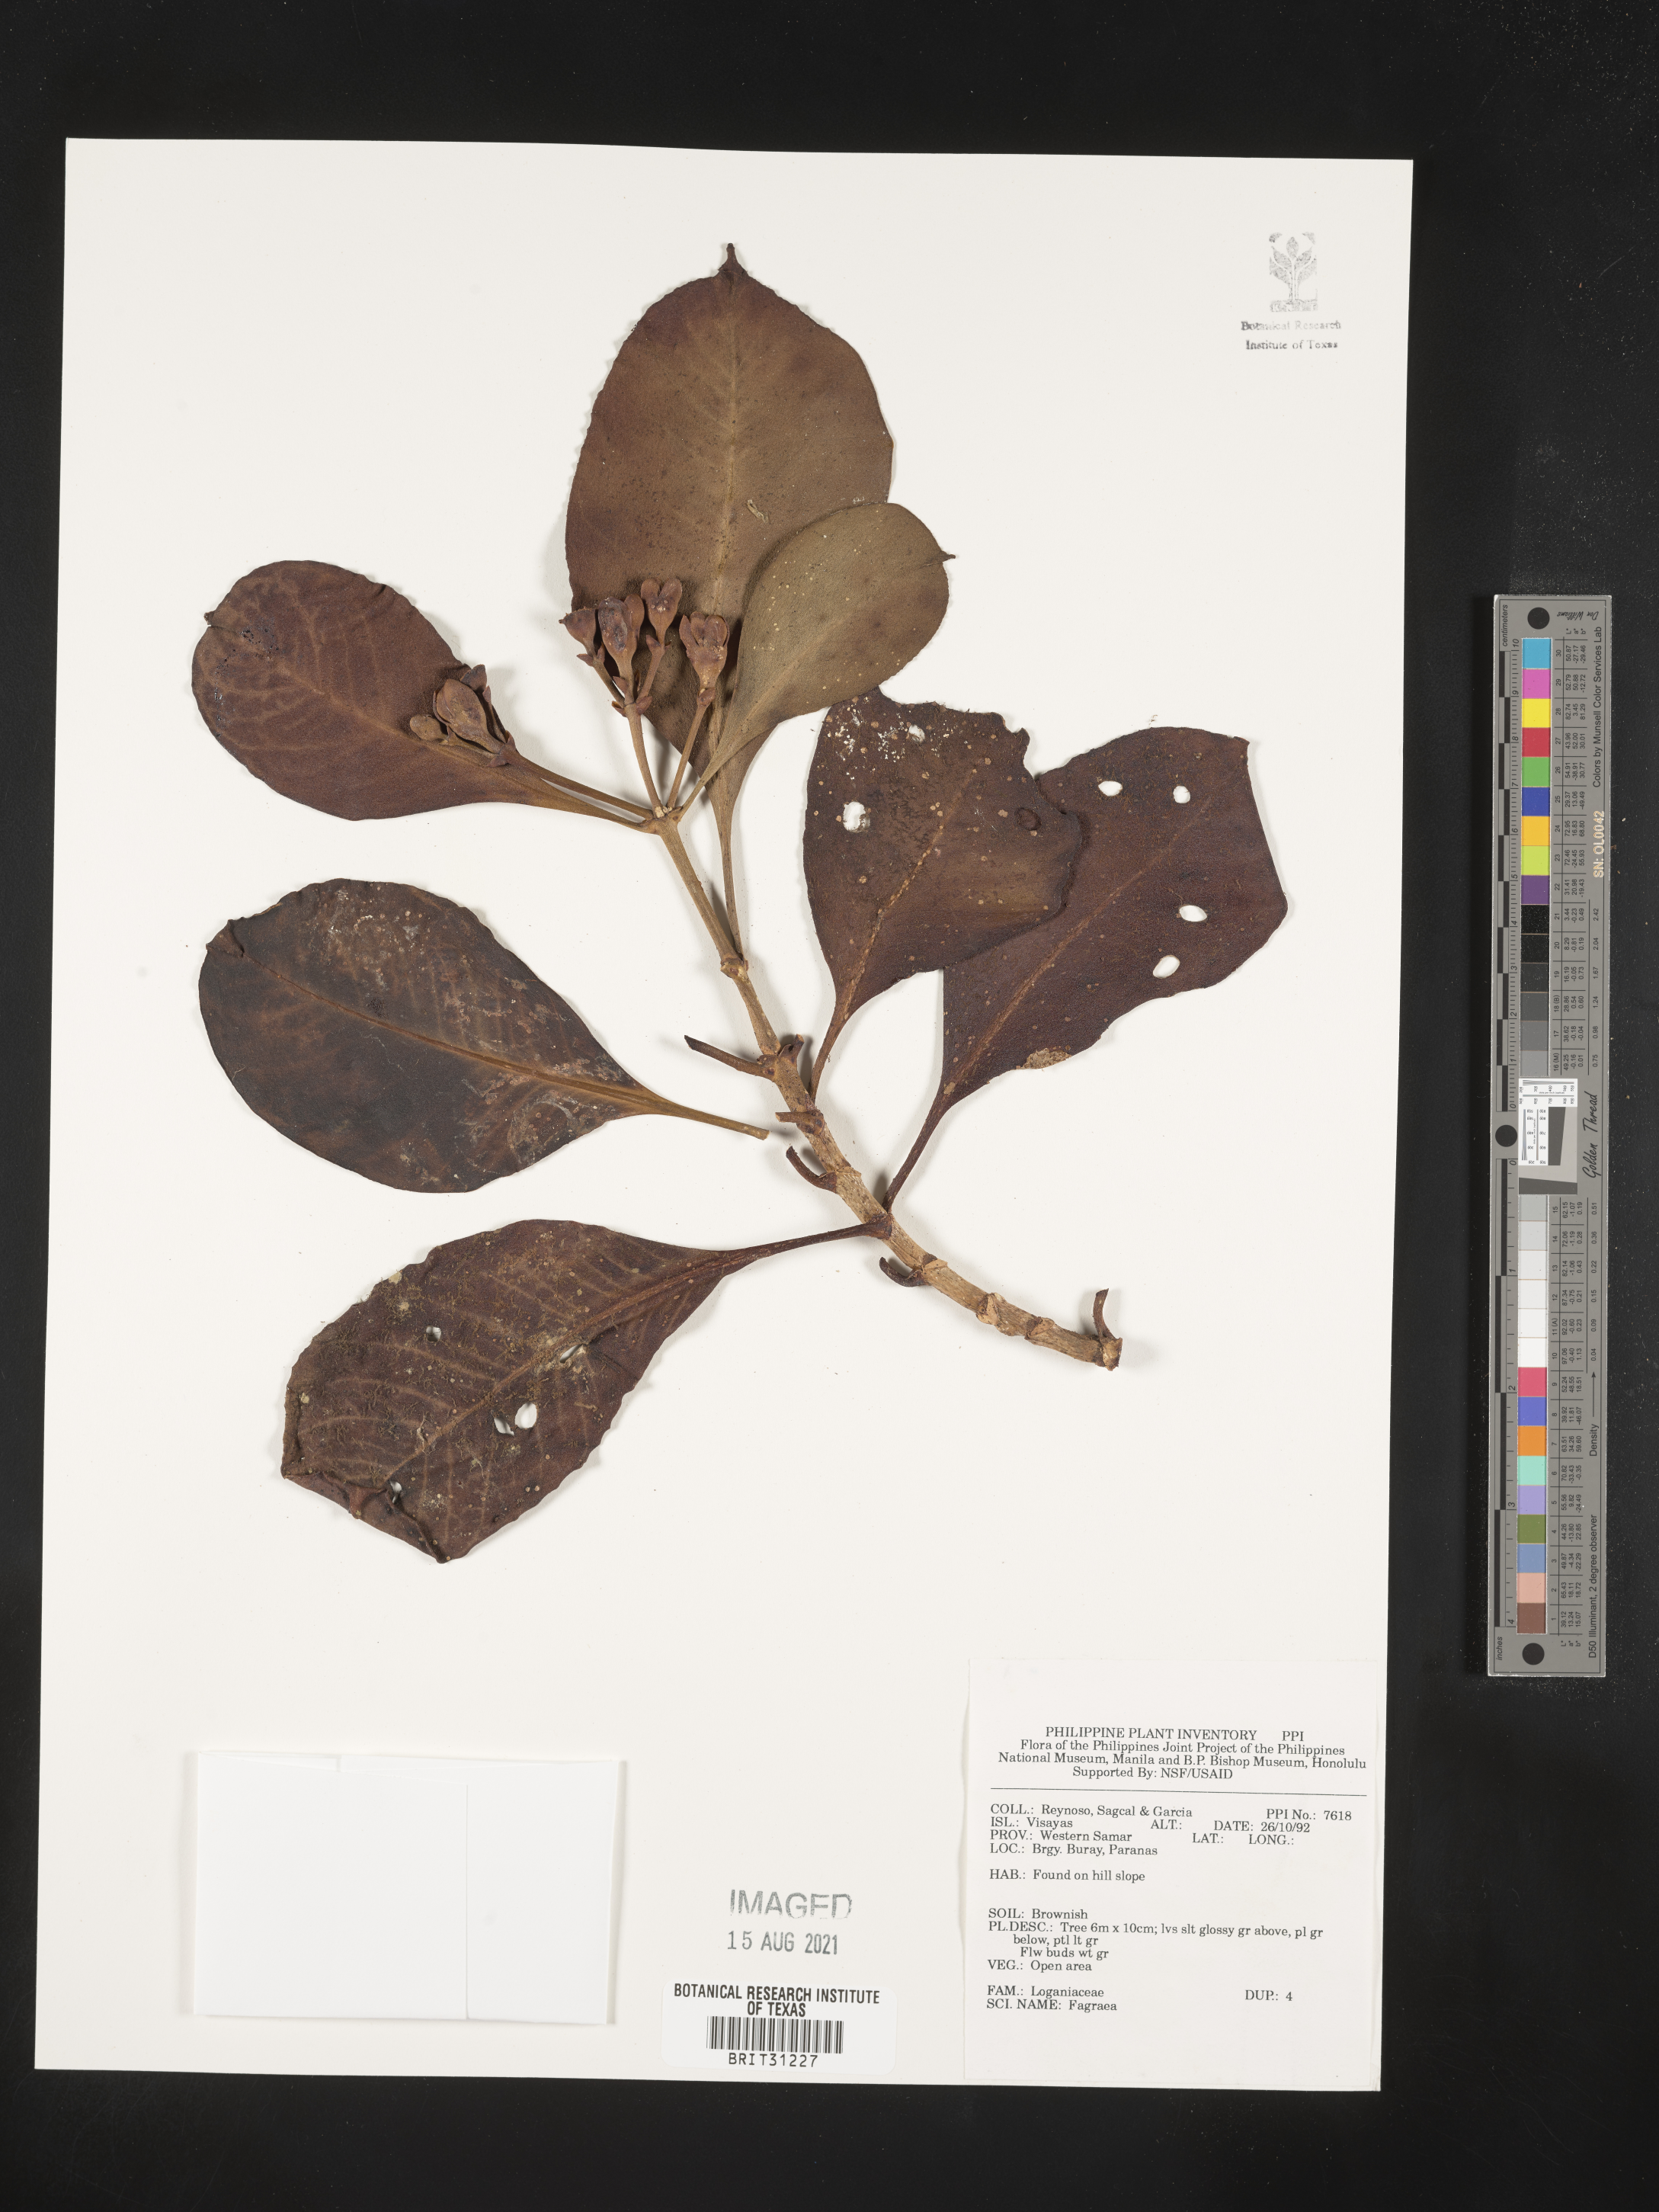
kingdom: Plantae
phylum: Tracheophyta
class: Magnoliopsida
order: Gentianales
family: Gentianaceae
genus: Fagraea
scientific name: Fagraea
